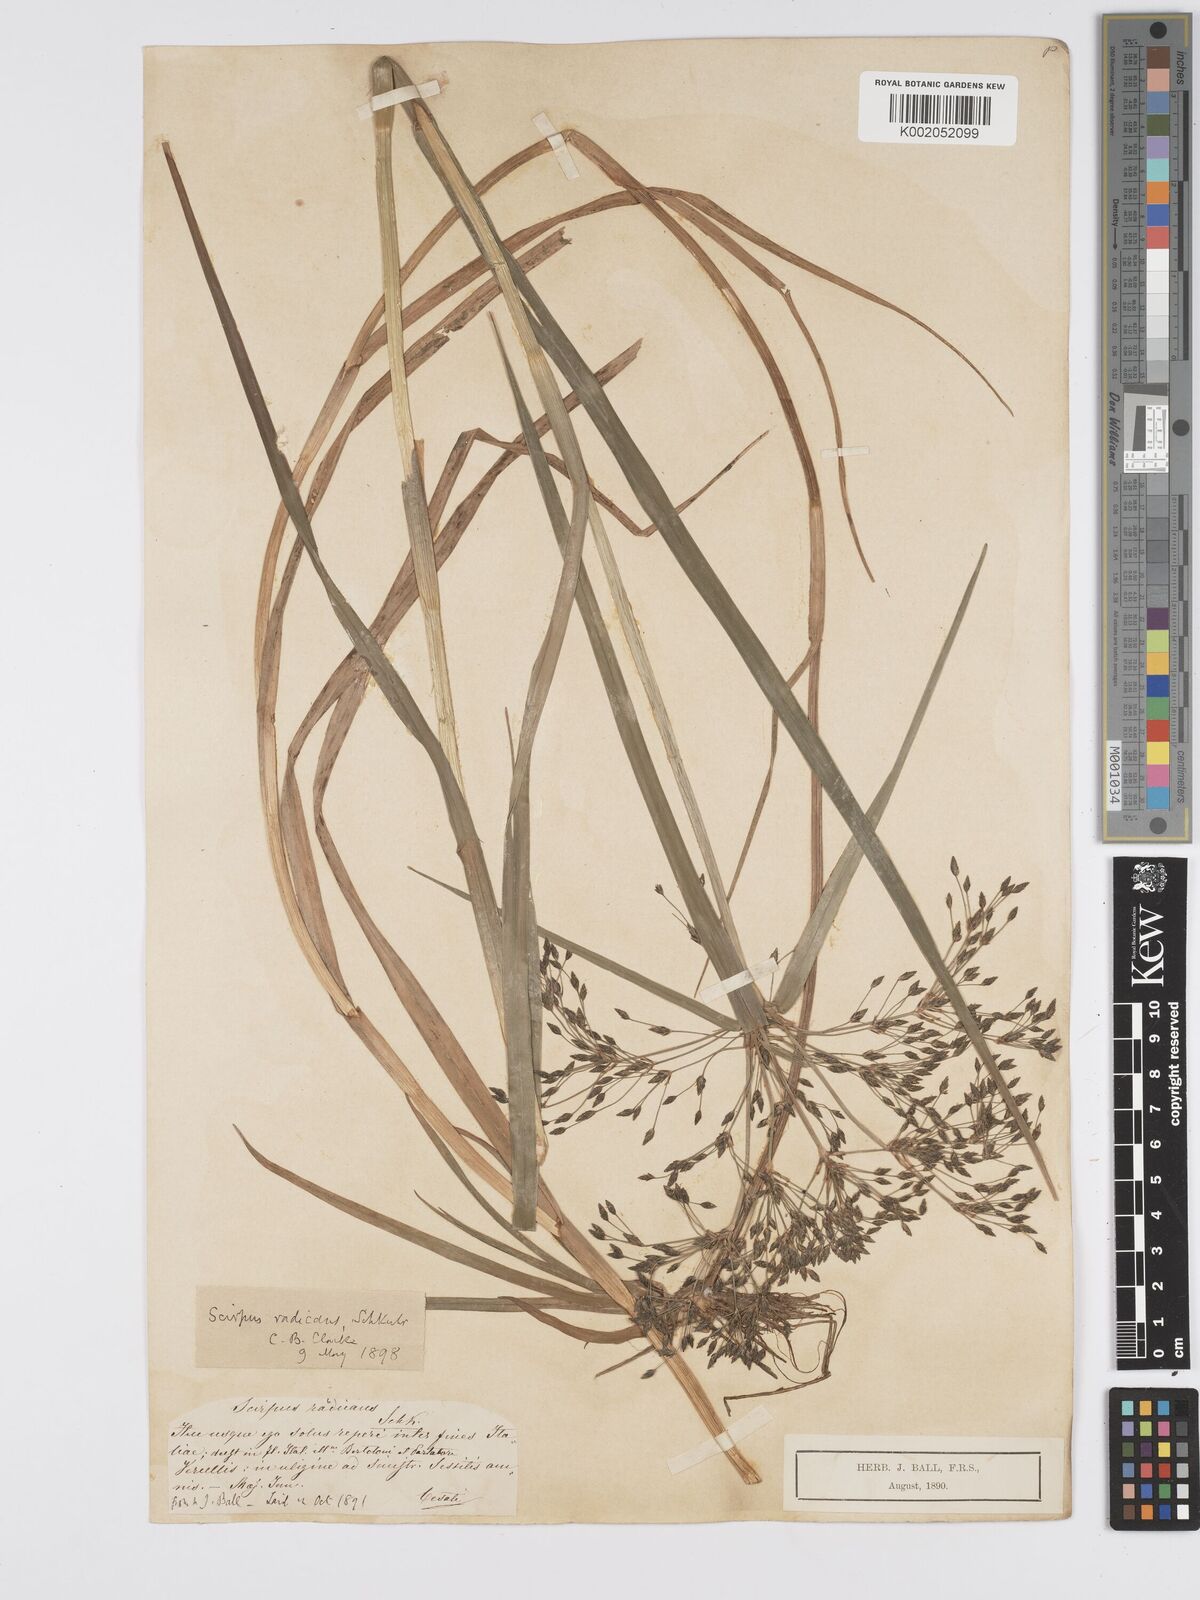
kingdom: Plantae
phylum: Tracheophyta
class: Liliopsida
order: Poales
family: Cyperaceae
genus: Scirpus
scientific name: Scirpus radicans
